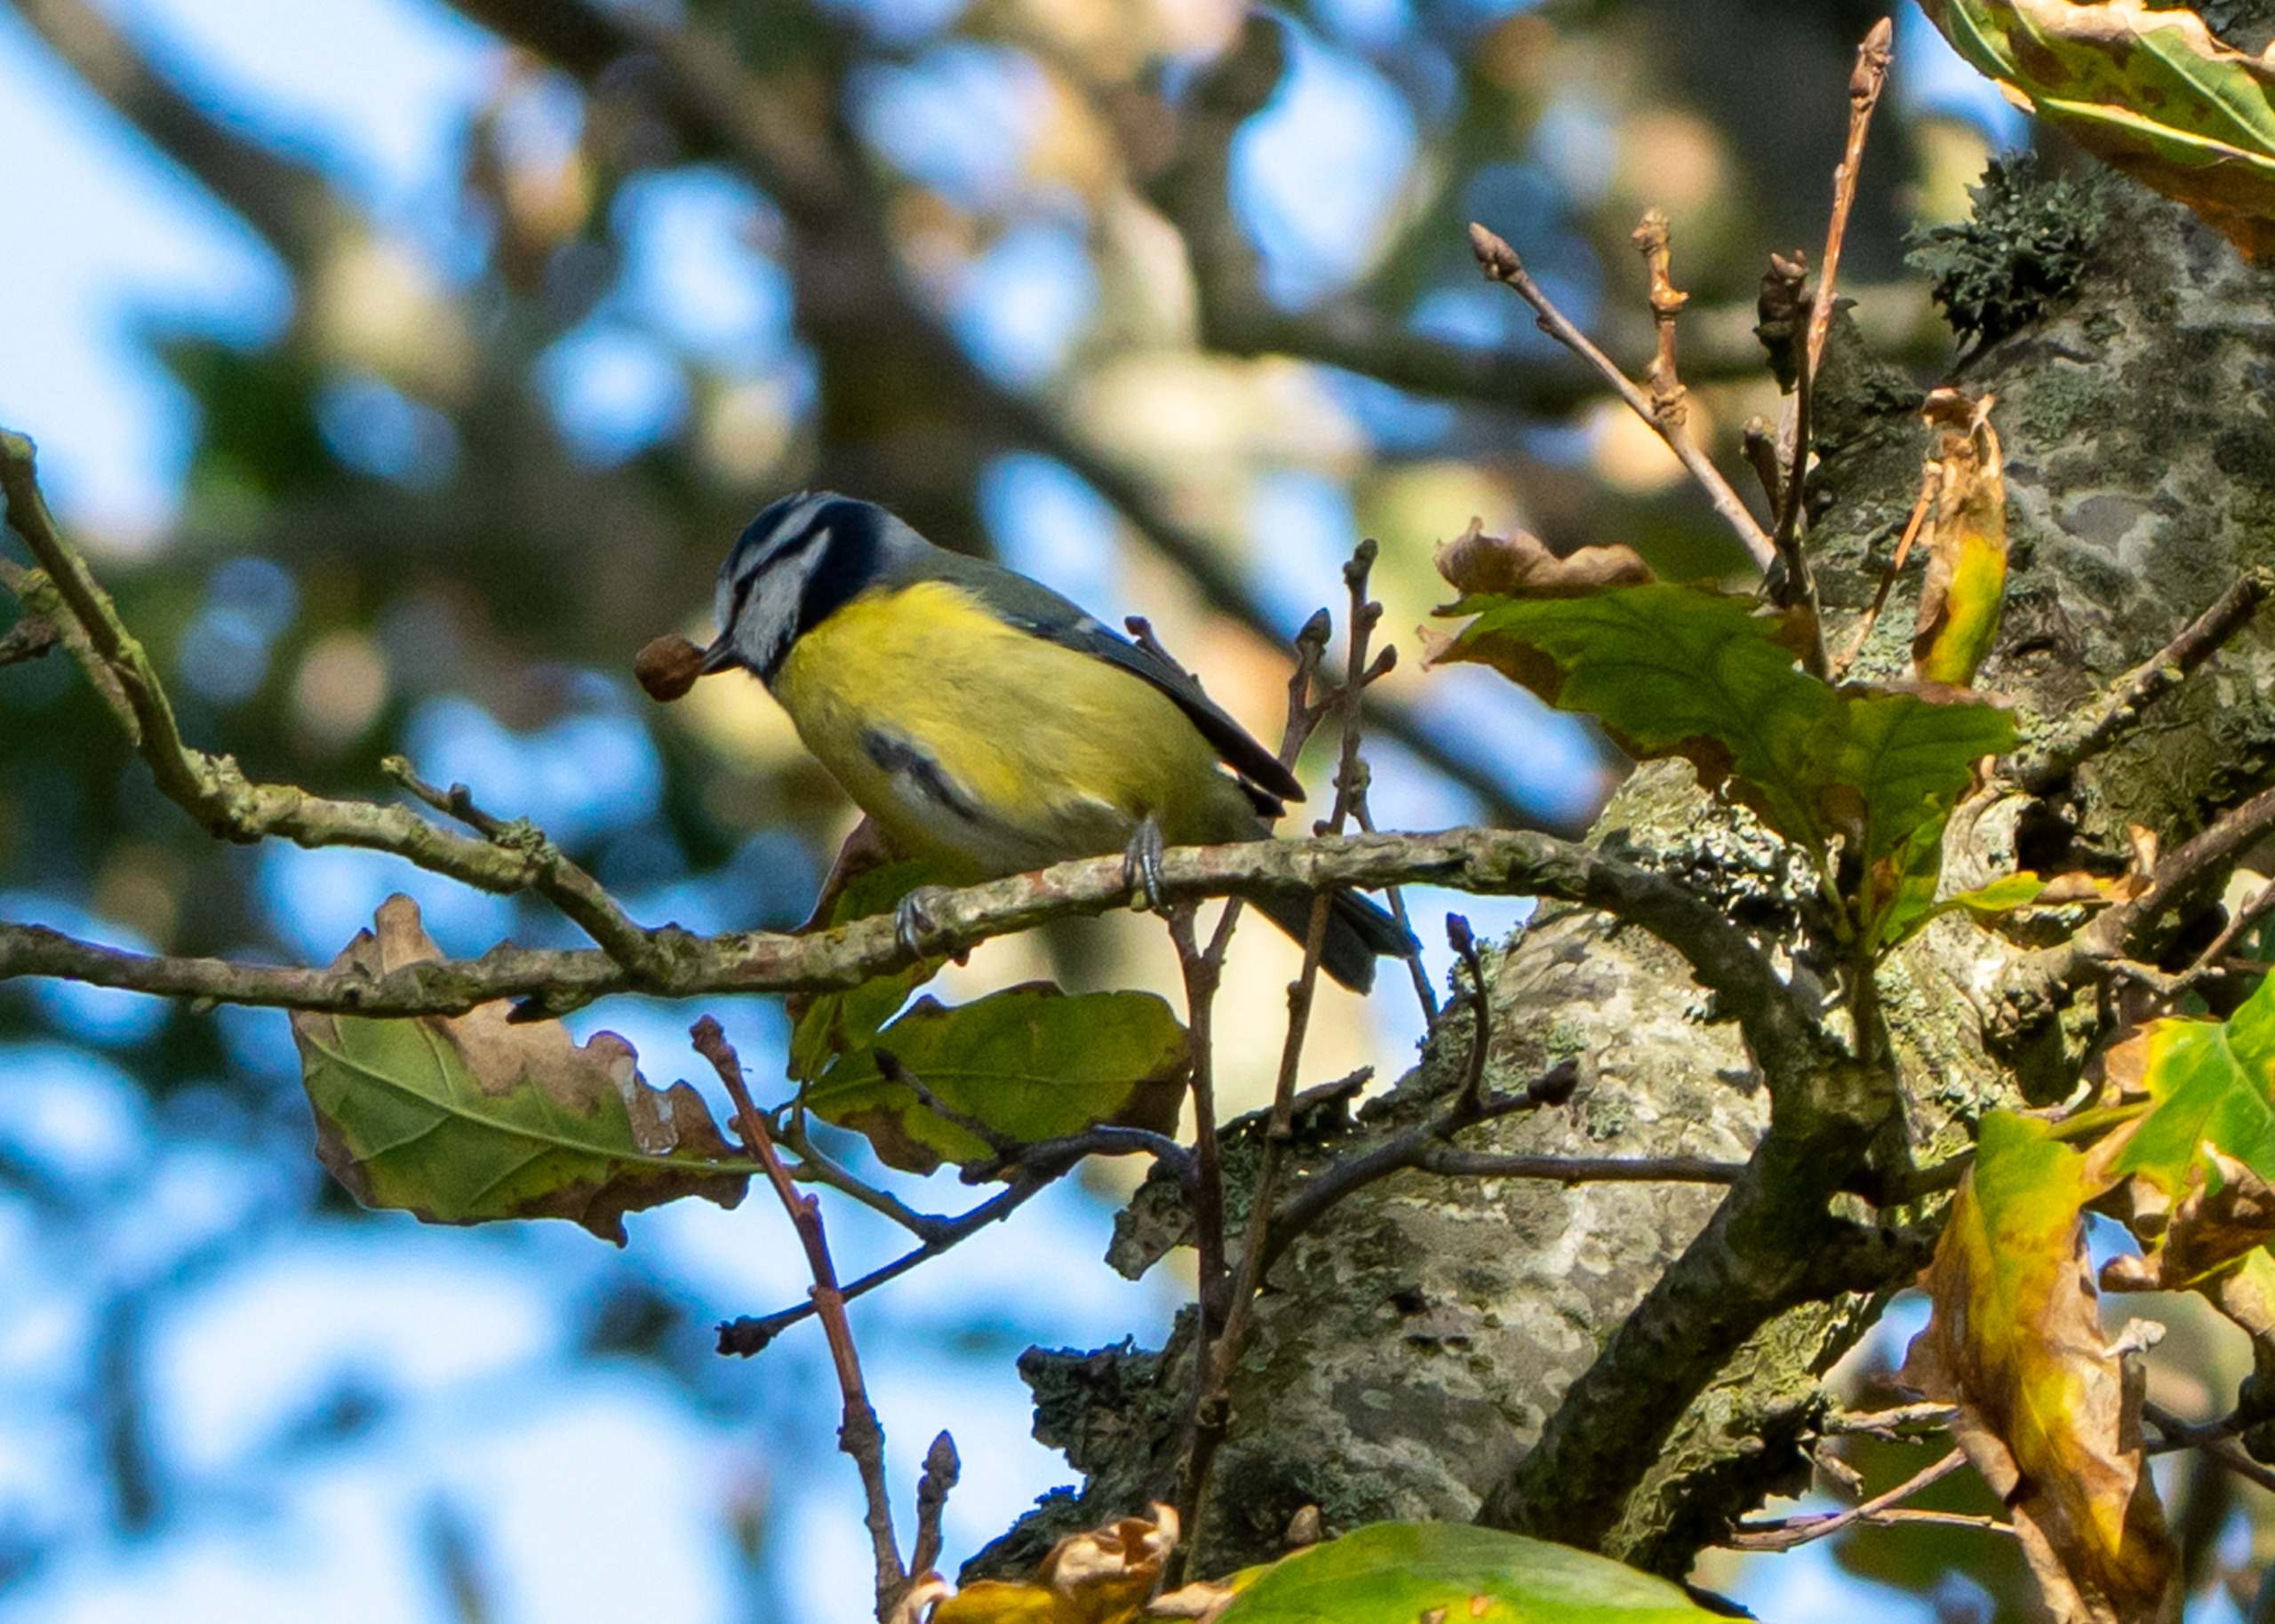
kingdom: Animalia
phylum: Chordata
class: Aves
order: Passeriformes
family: Paridae
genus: Cyanistes
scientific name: Cyanistes caeruleus
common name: Blåmejse
